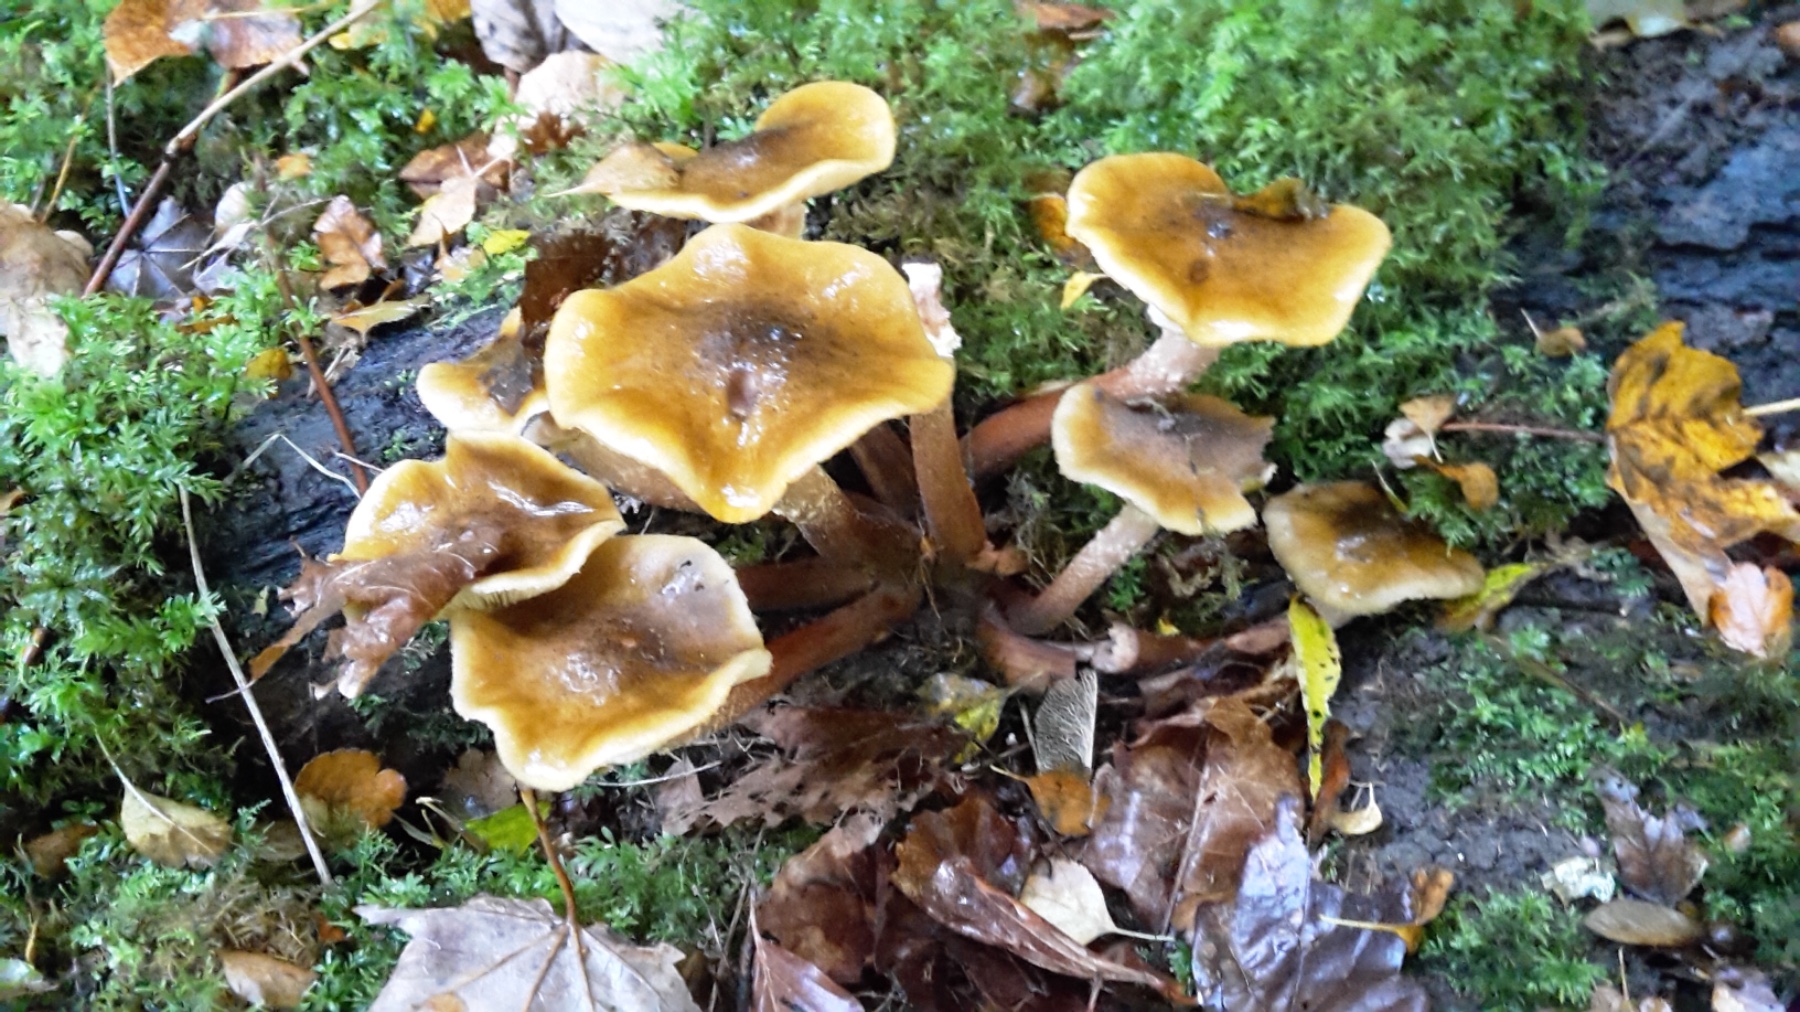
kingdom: Fungi
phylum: Basidiomycota
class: Agaricomycetes
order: Agaricales
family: Physalacriaceae
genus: Armillaria
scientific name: Armillaria mellea
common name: ægte honningsvamp
